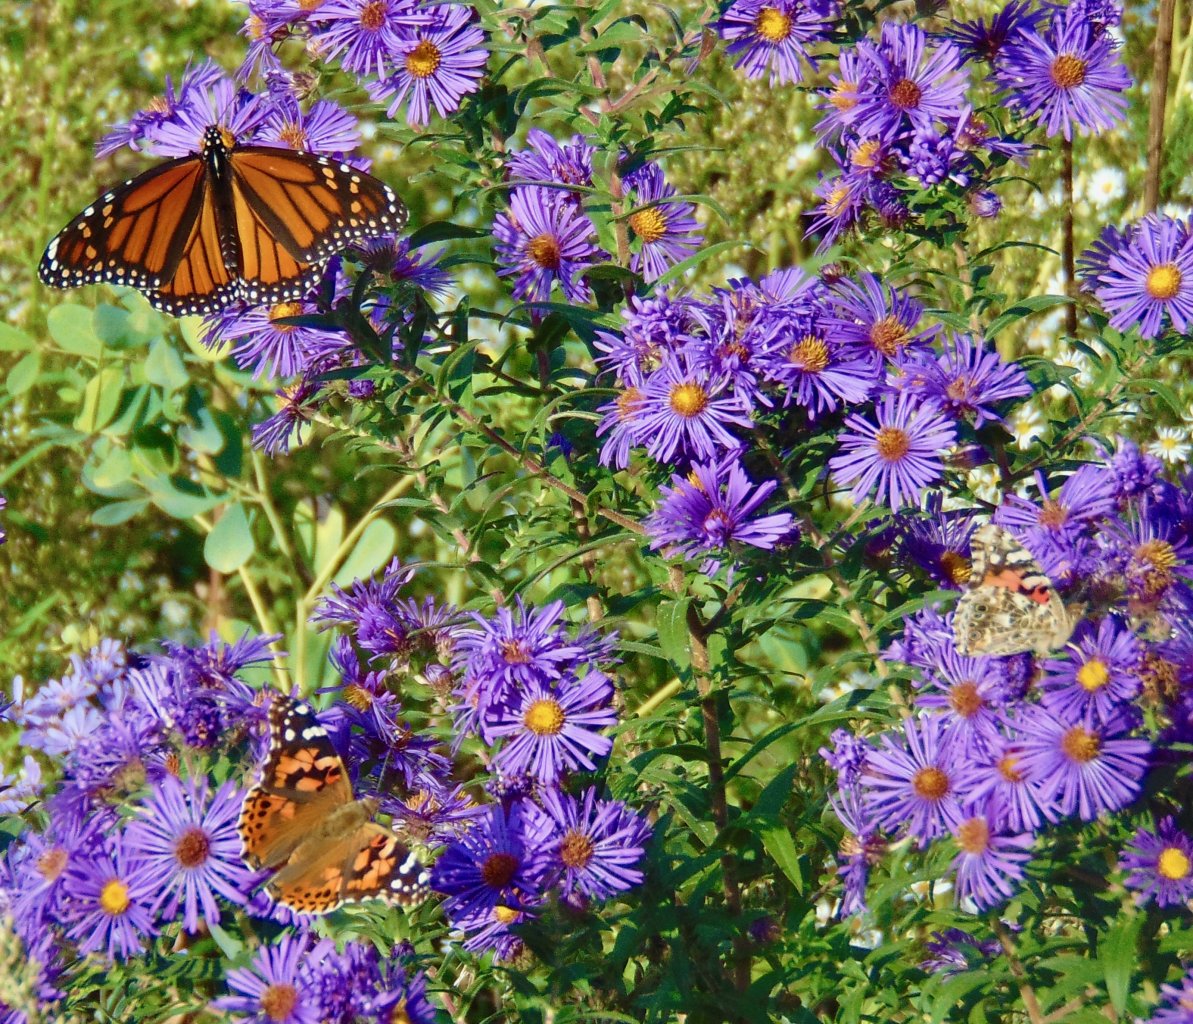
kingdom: Animalia
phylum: Arthropoda
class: Insecta
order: Lepidoptera
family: Nymphalidae
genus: Danaus
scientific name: Danaus plexippus
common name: Monarch
